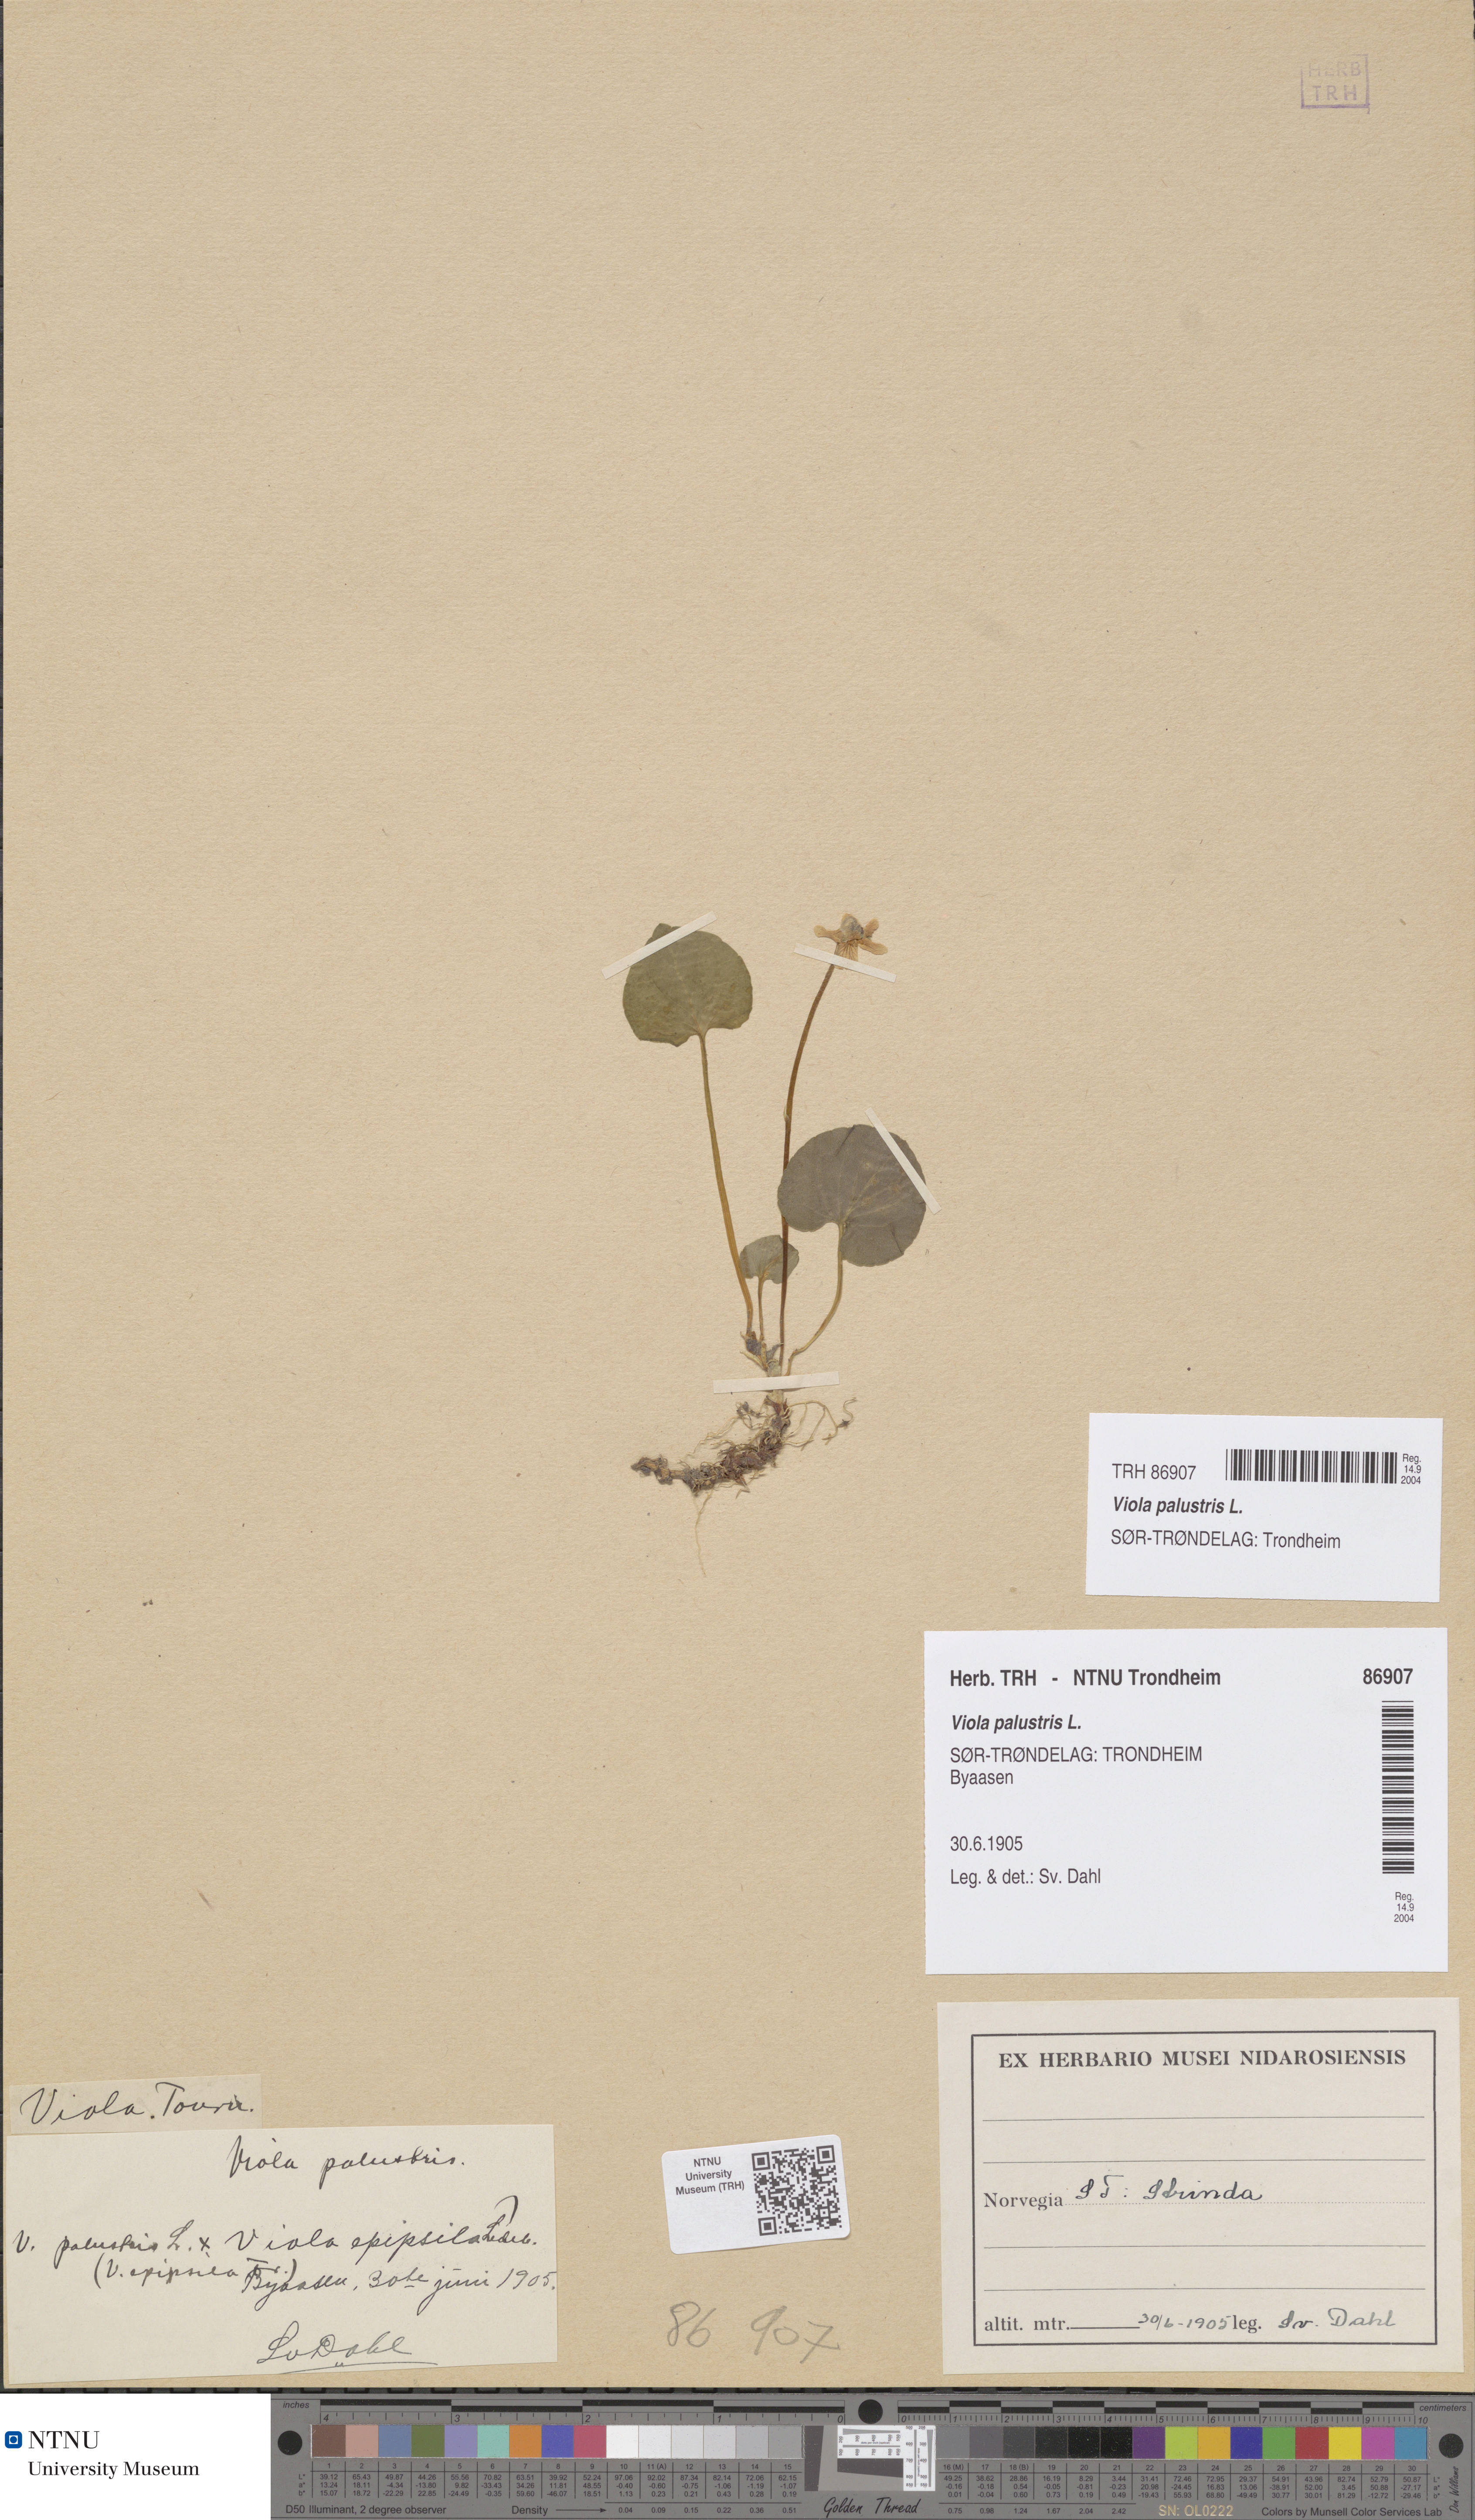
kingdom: Plantae
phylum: Tracheophyta
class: Magnoliopsida
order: Malpighiales
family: Violaceae
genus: Viola
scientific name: Viola palustris
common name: Marsh violet
